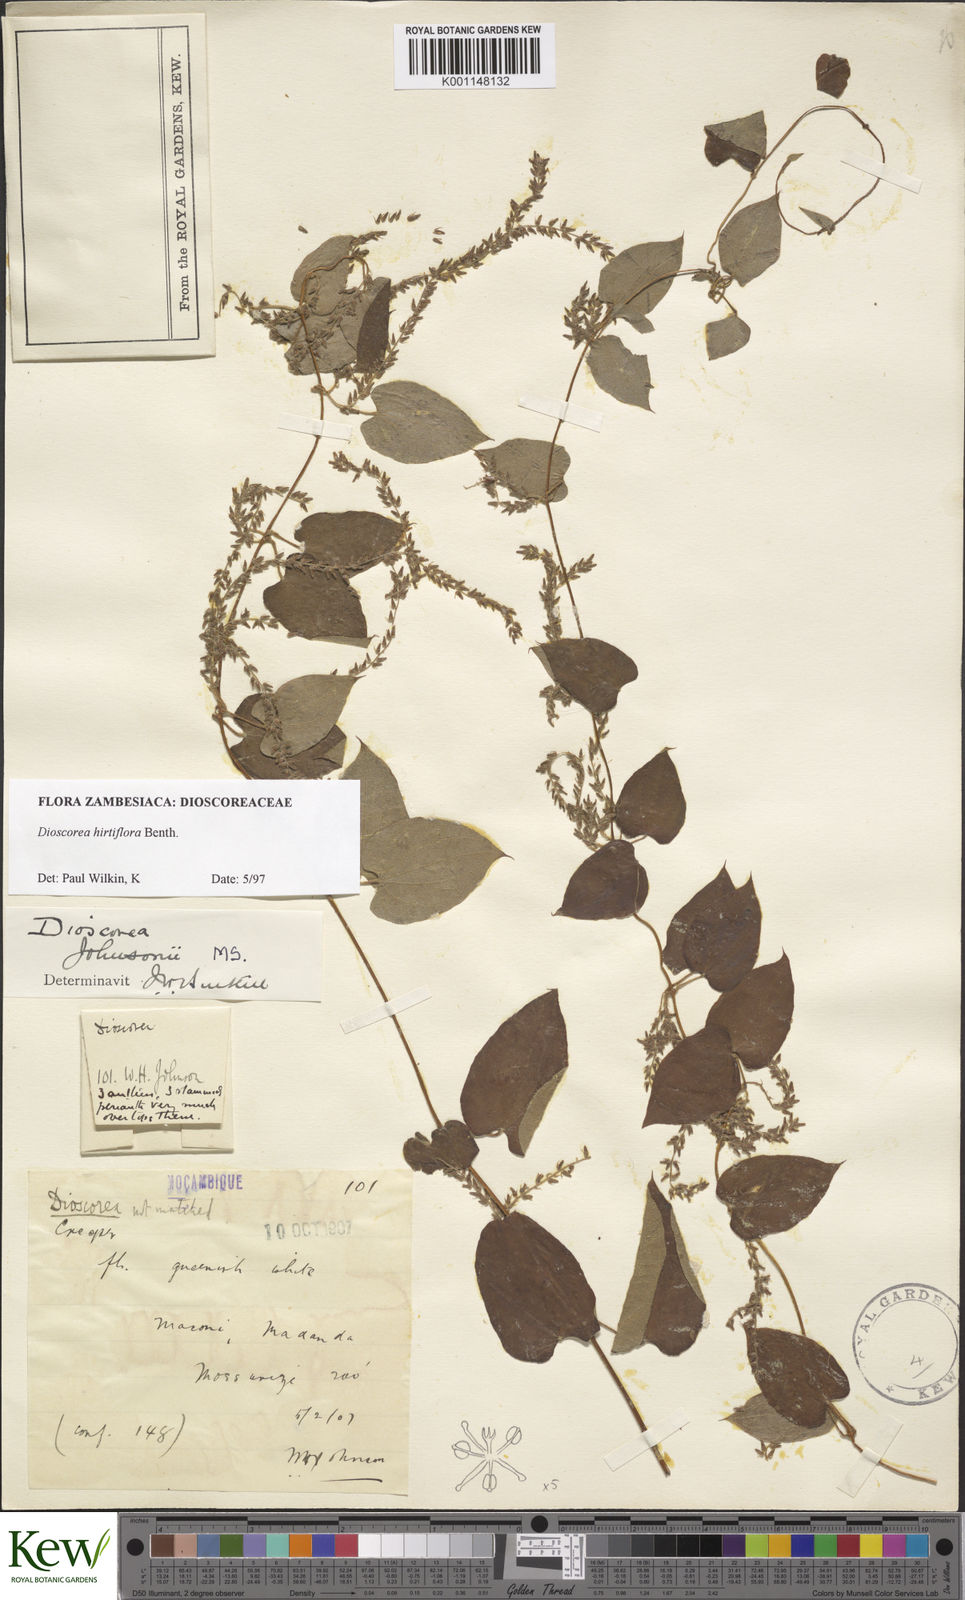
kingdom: Plantae
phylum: Tracheophyta
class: Liliopsida
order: Dioscoreales
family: Dioscoreaceae
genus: Dioscorea
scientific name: Dioscorea hirtiflora
